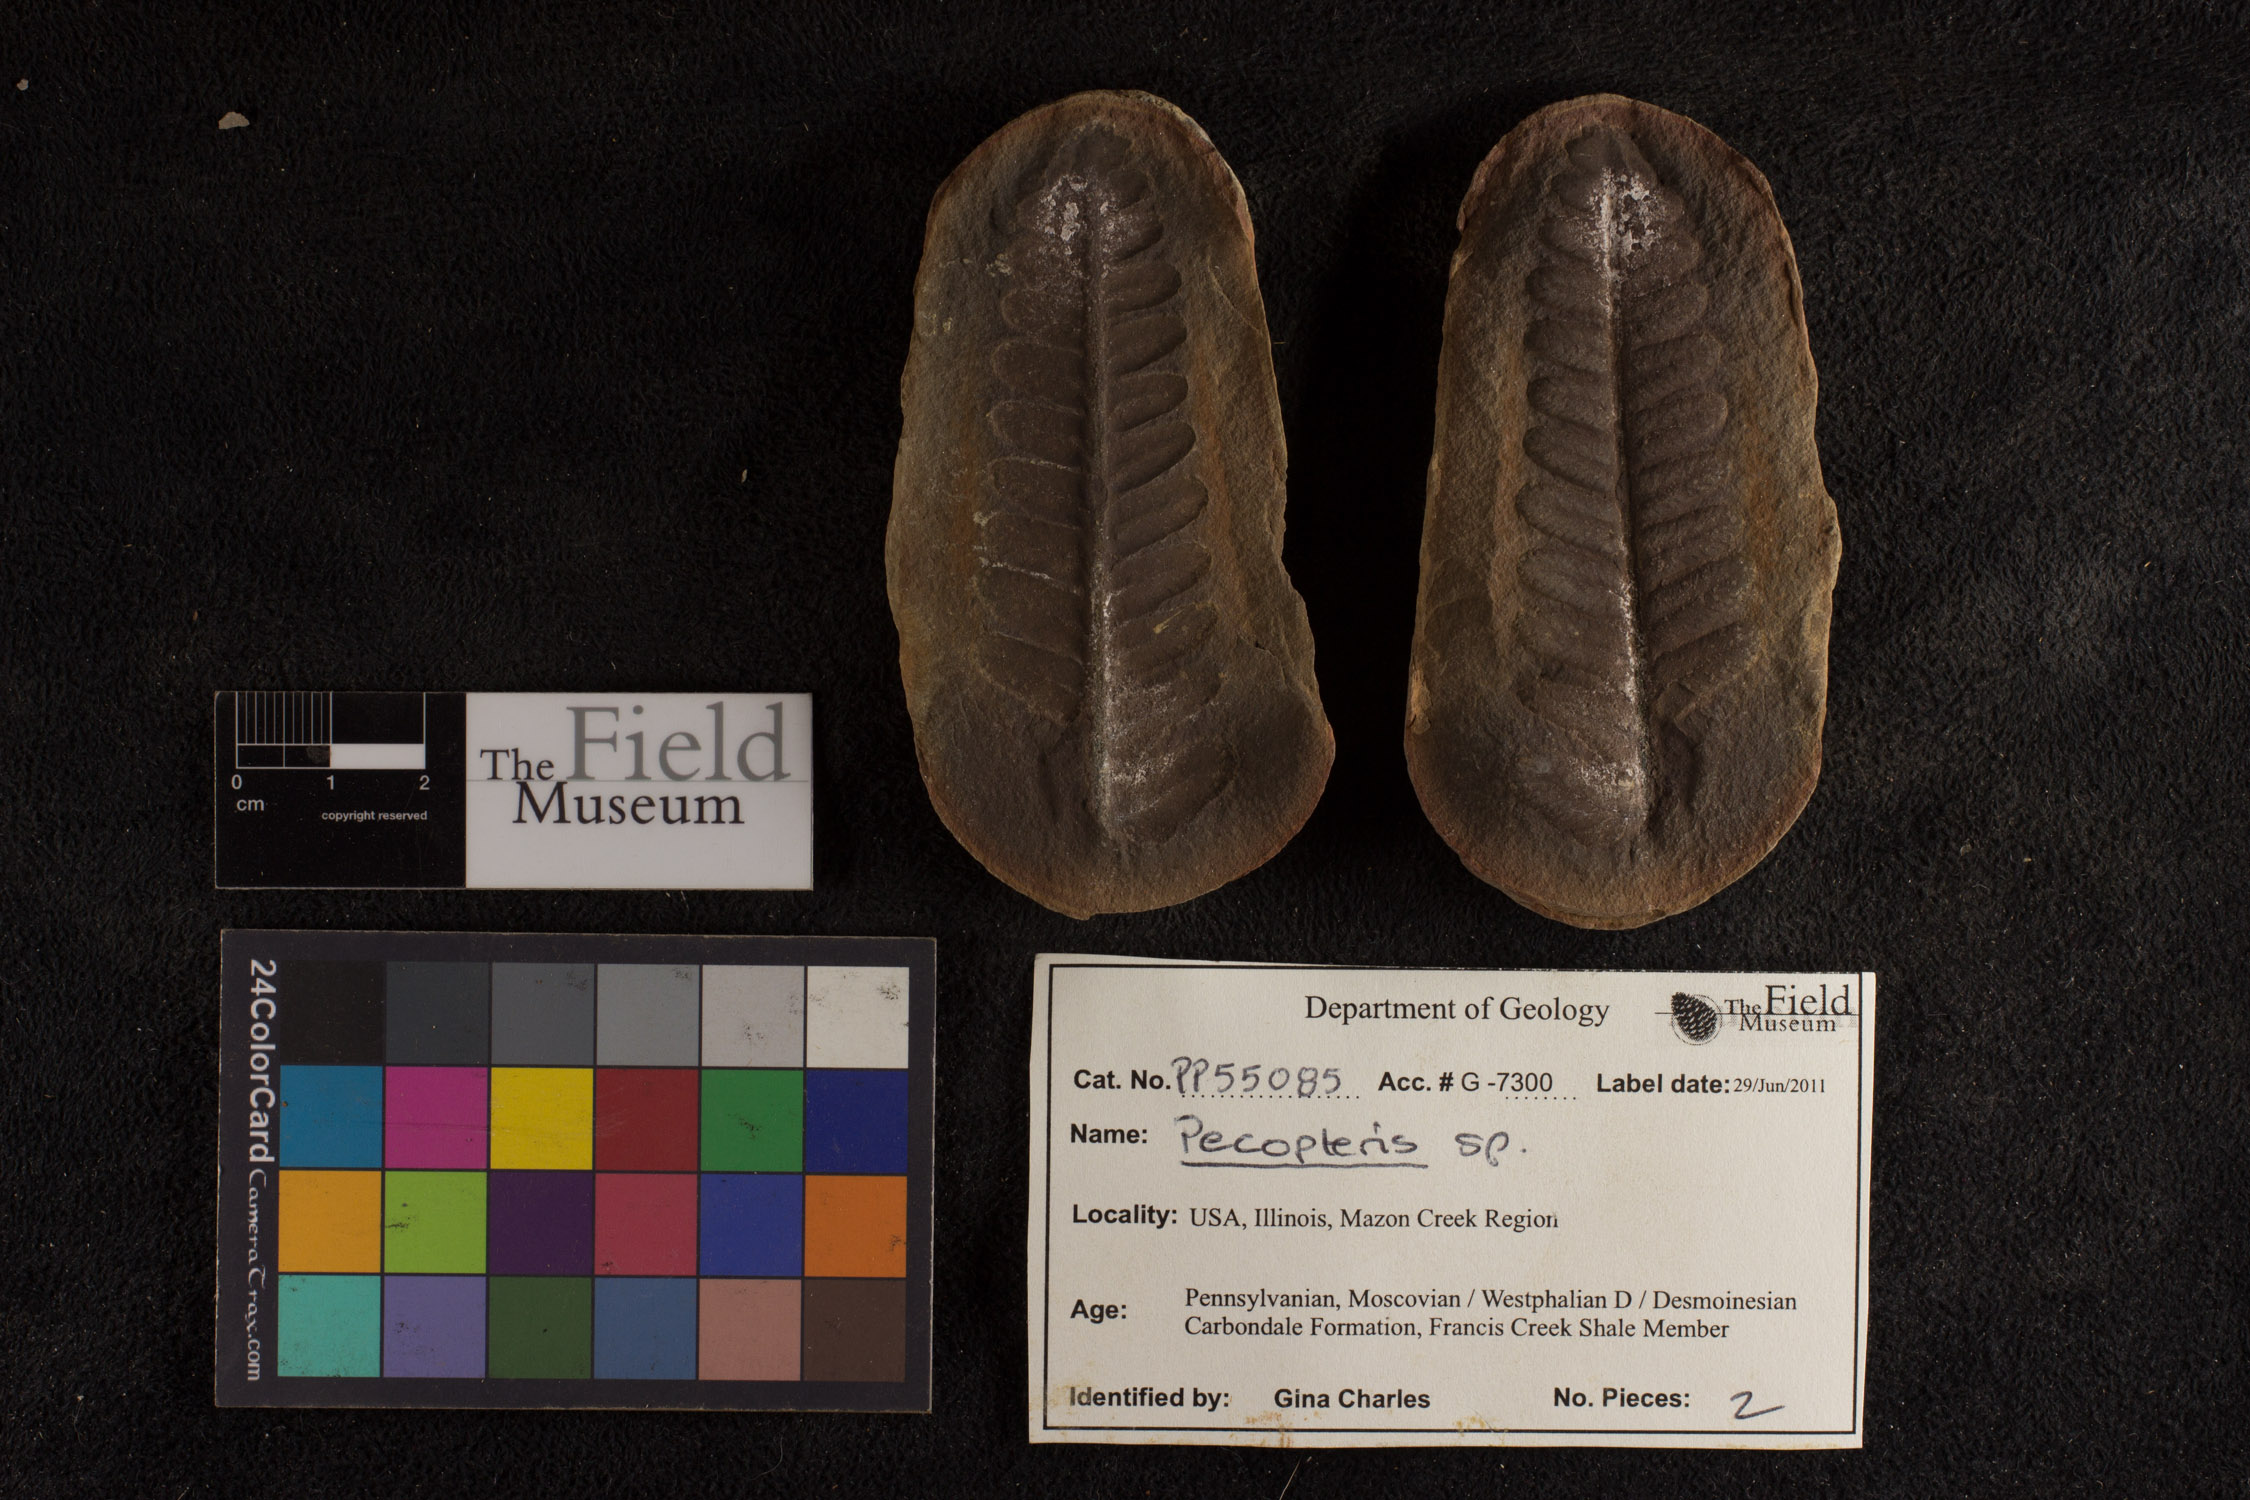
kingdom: Plantae
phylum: Tracheophyta
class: Polypodiopsida
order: Marattiales
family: Asterothecaceae
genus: Pecopteris
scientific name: Pecopteris
